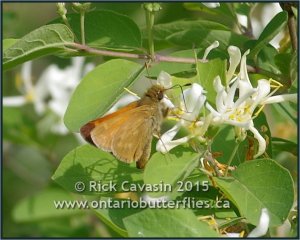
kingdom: Animalia
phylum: Arthropoda
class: Insecta
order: Lepidoptera
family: Hesperiidae
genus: Hesperia
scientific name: Hesperia sassacus
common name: Sassacus Skipper
